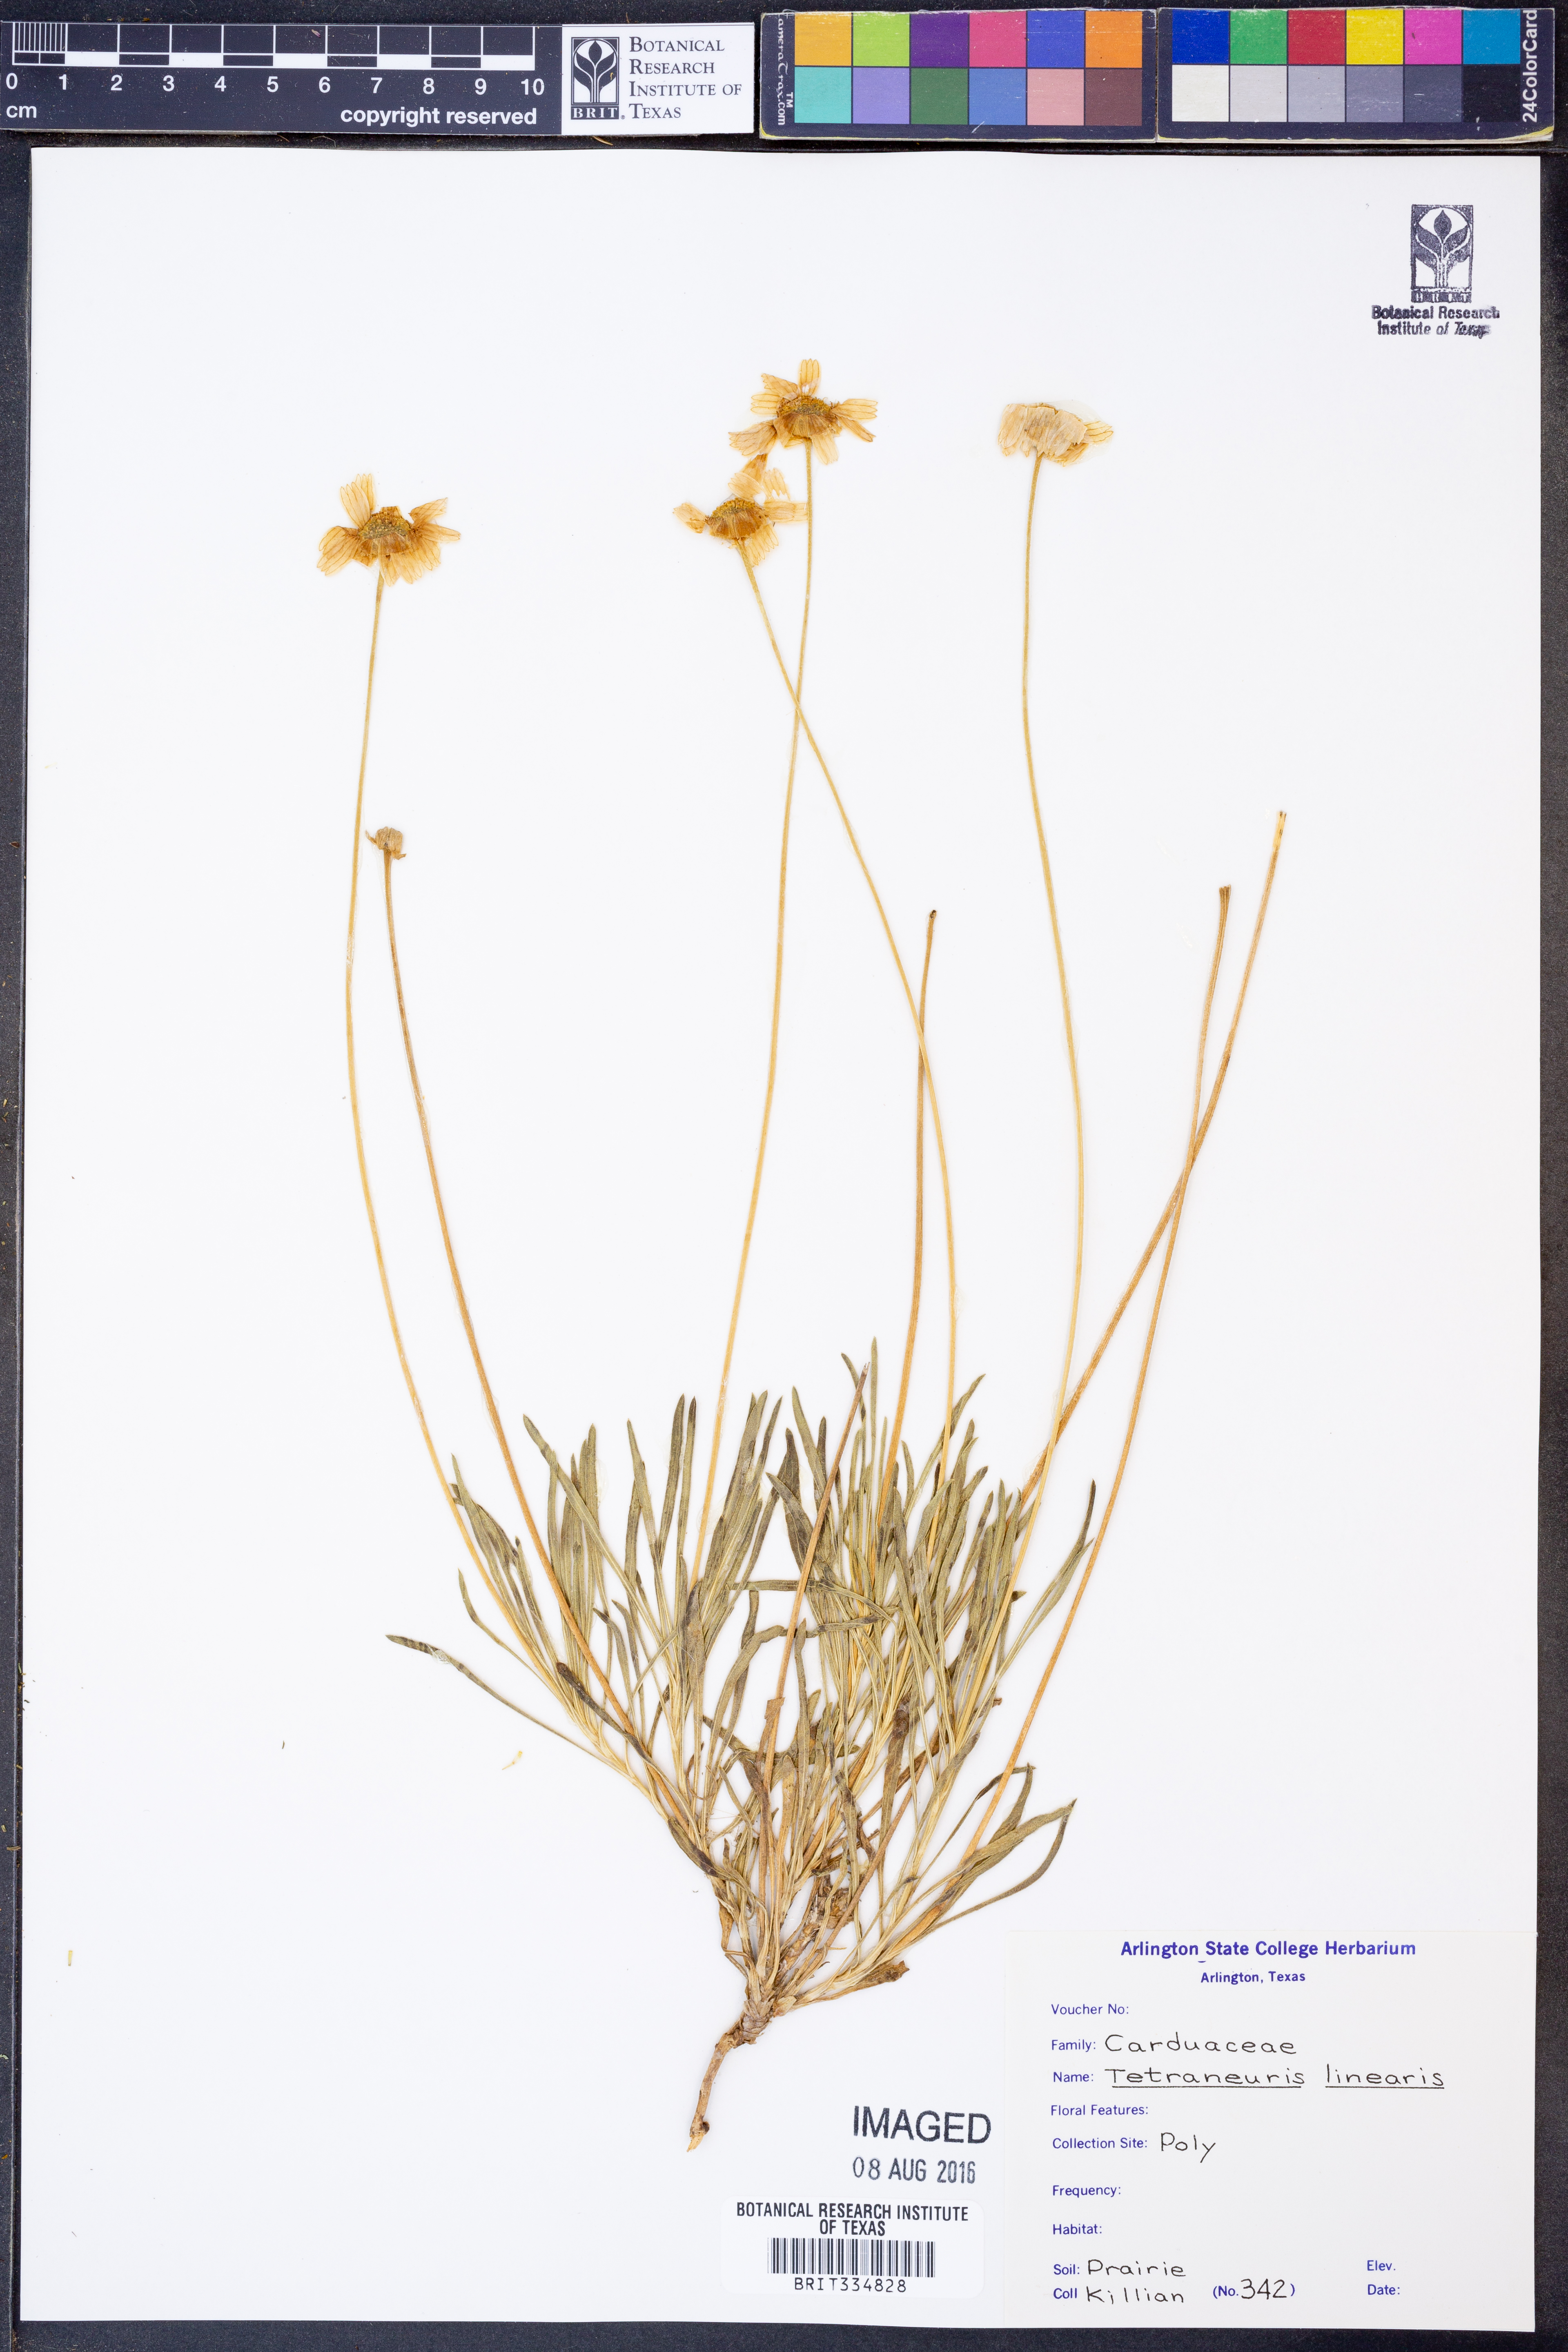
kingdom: Plantae
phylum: Tracheophyta
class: Magnoliopsida
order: Asterales
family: Asteraceae
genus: Tetraneuris
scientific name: Tetraneuris scaposa
